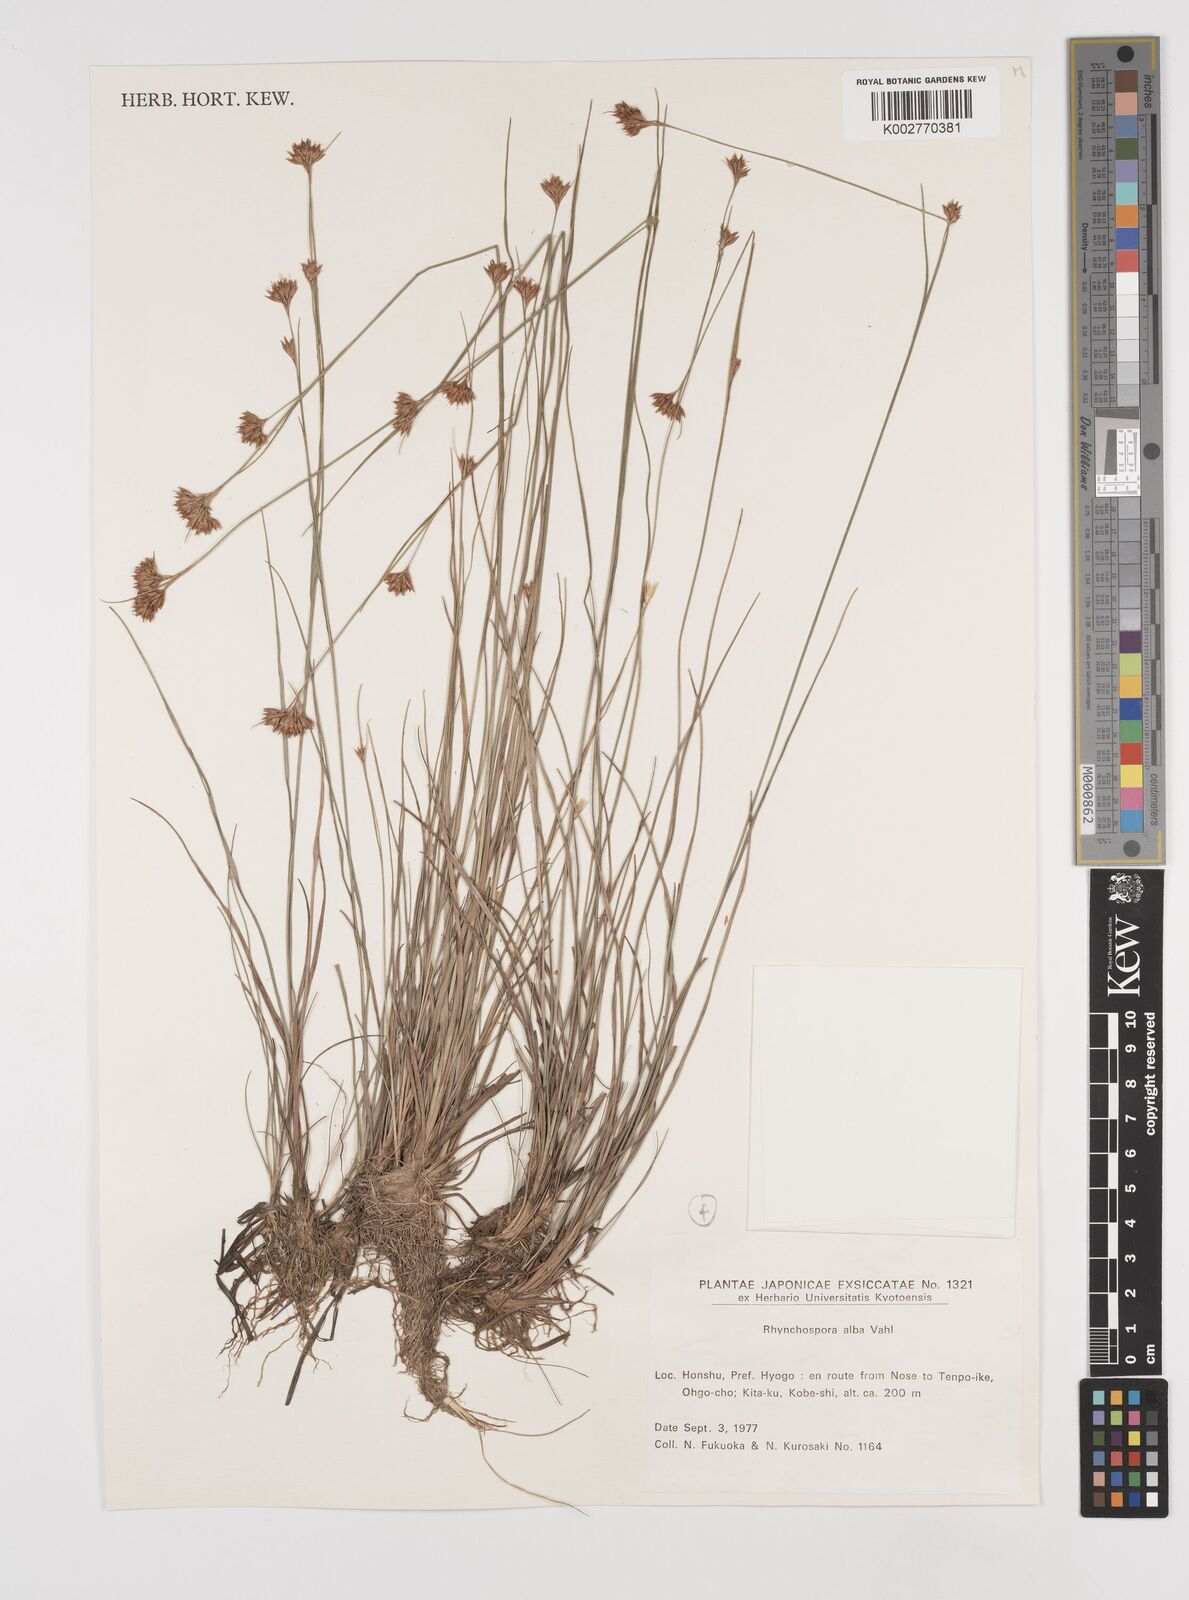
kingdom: Plantae
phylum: Tracheophyta
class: Liliopsida
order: Poales
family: Cyperaceae
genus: Rhynchospora
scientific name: Rhynchospora alba
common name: White beak-sedge
